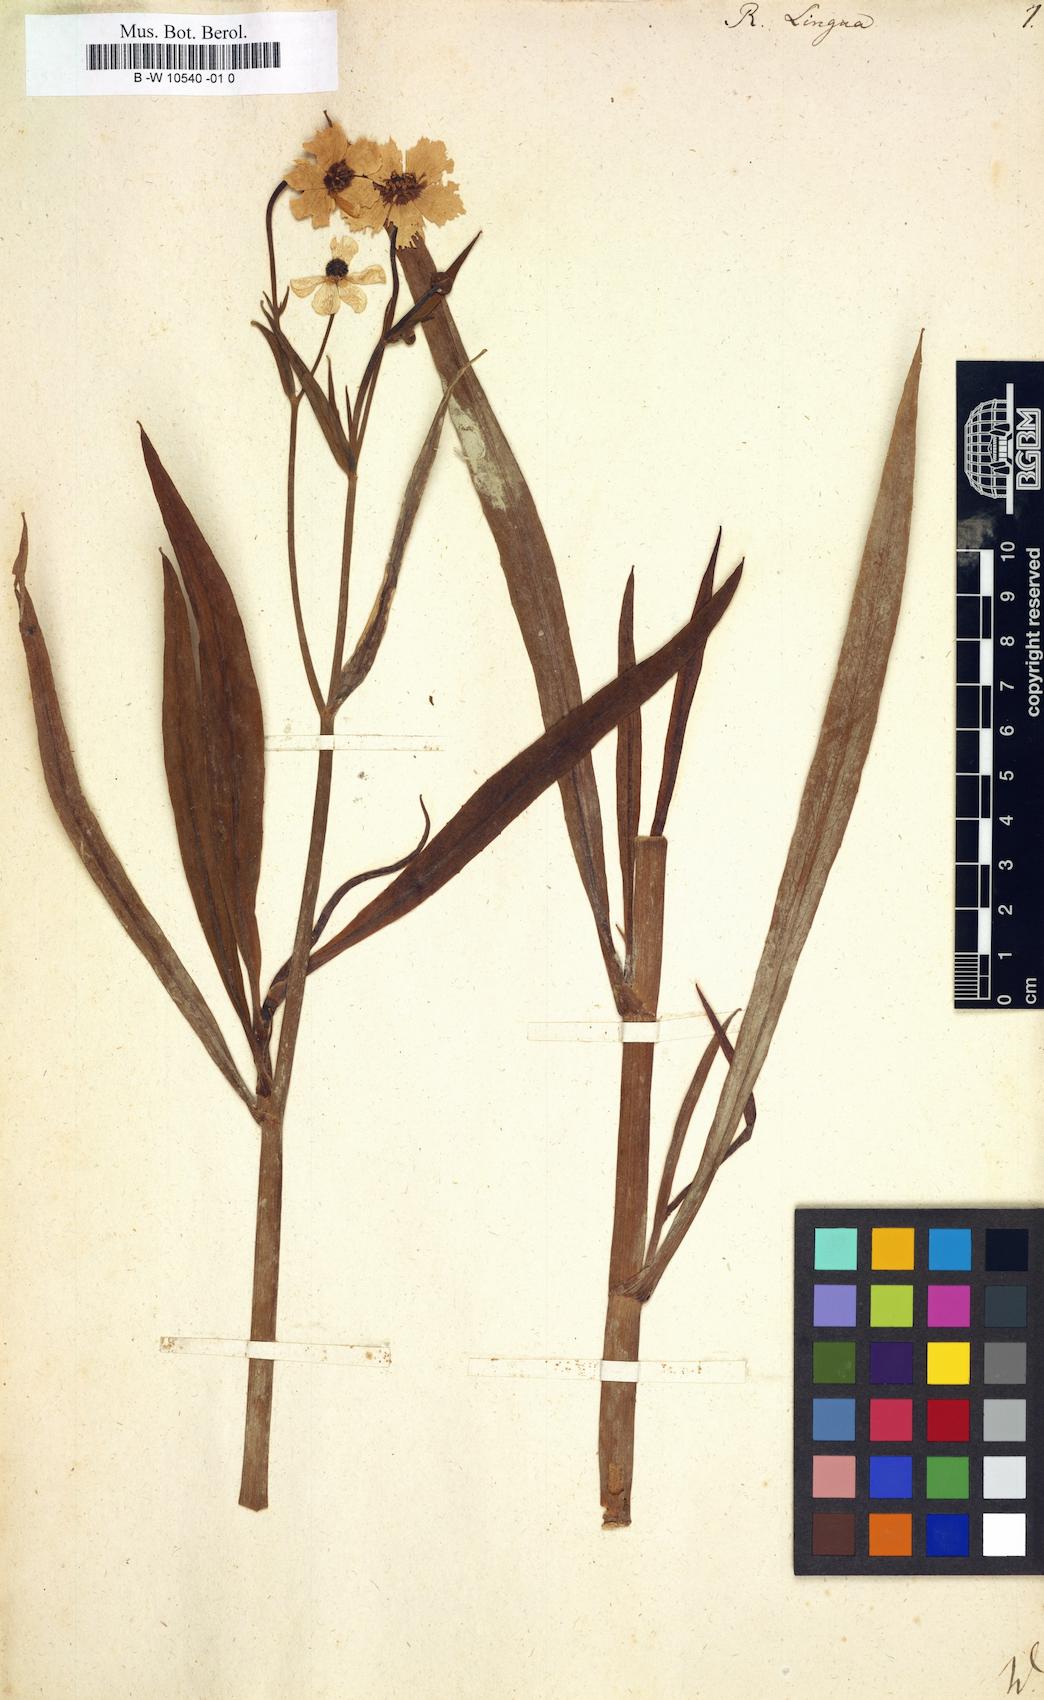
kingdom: Plantae
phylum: Tracheophyta
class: Magnoliopsida
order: Ranunculales
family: Ranunculaceae
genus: Ranunculus
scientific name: Ranunculus lingua
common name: Greater spearwort
